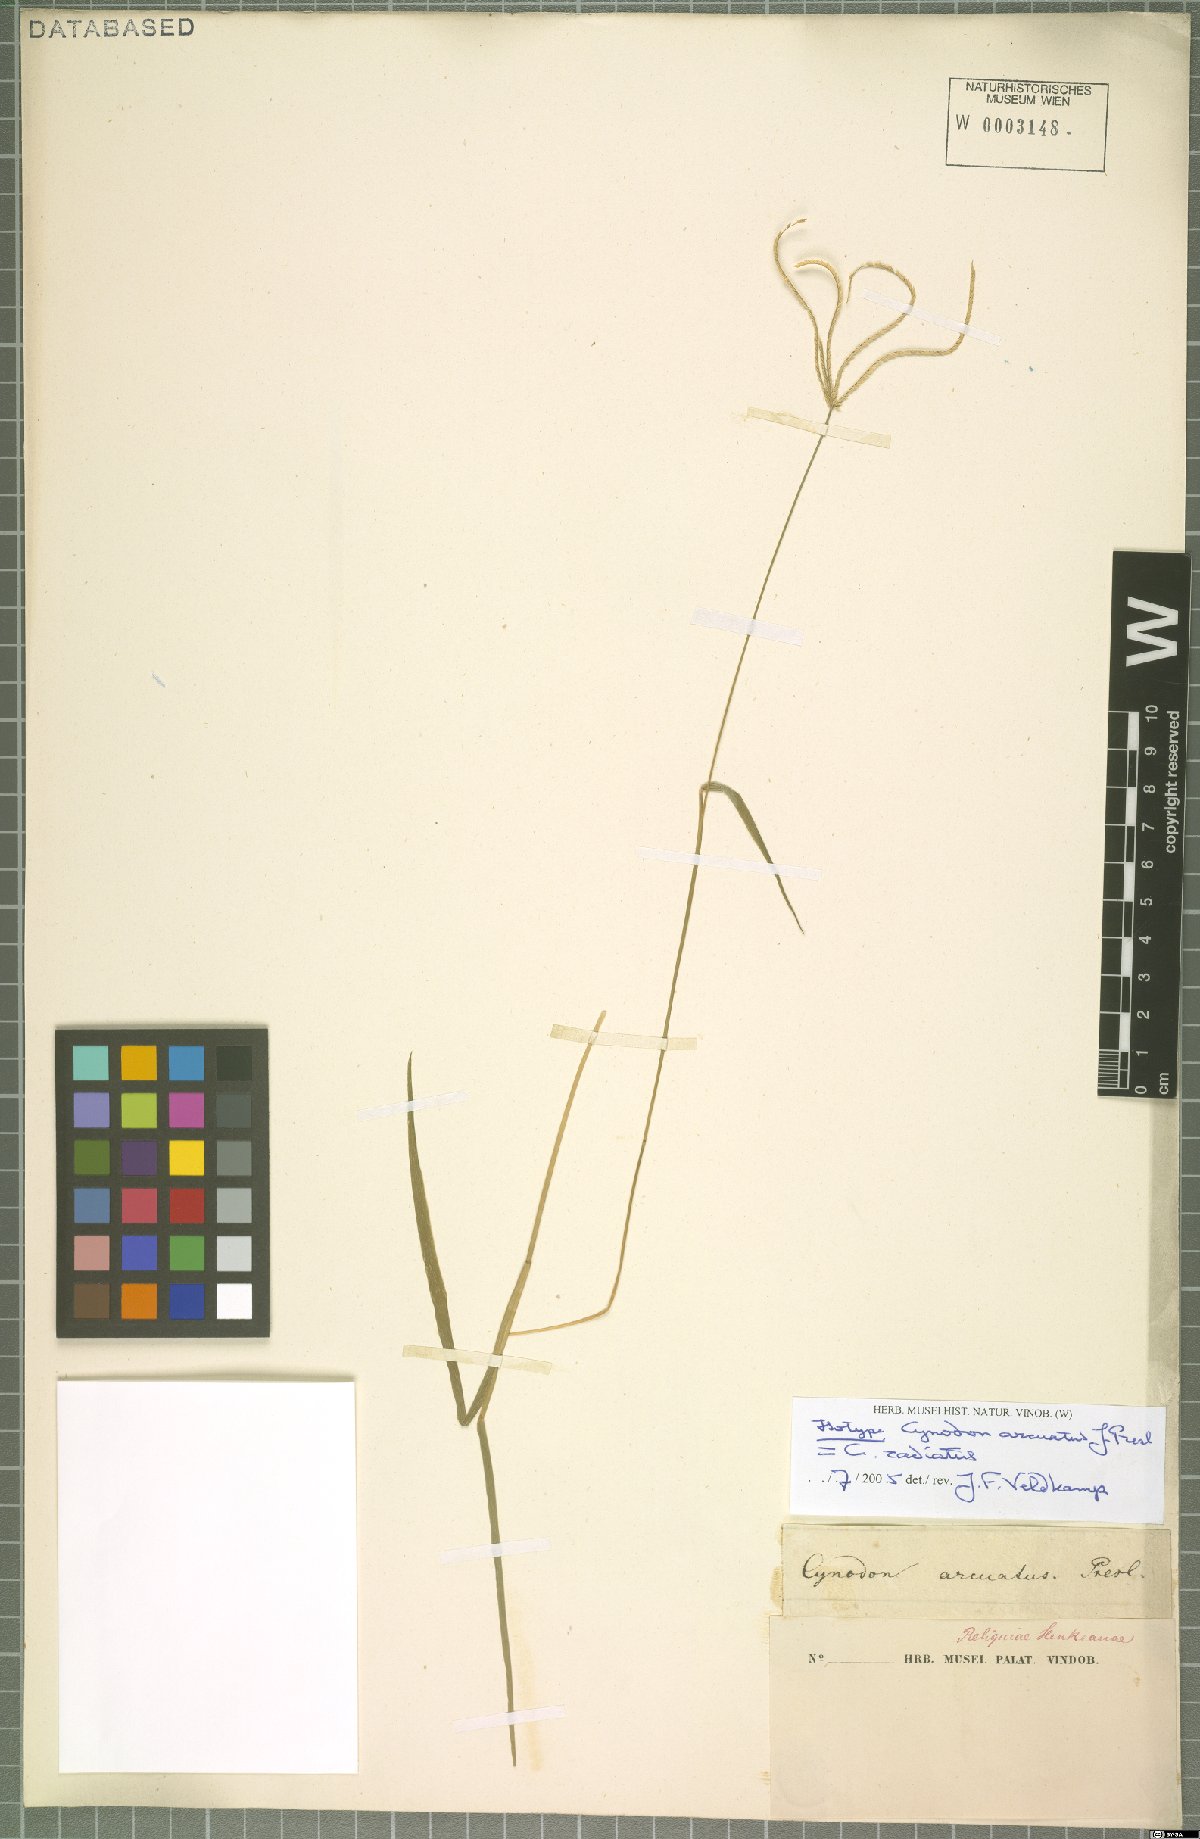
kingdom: Plantae
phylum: Tracheophyta
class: Liliopsida
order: Poales
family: Poaceae
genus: Cynodon
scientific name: Cynodon radiatus
